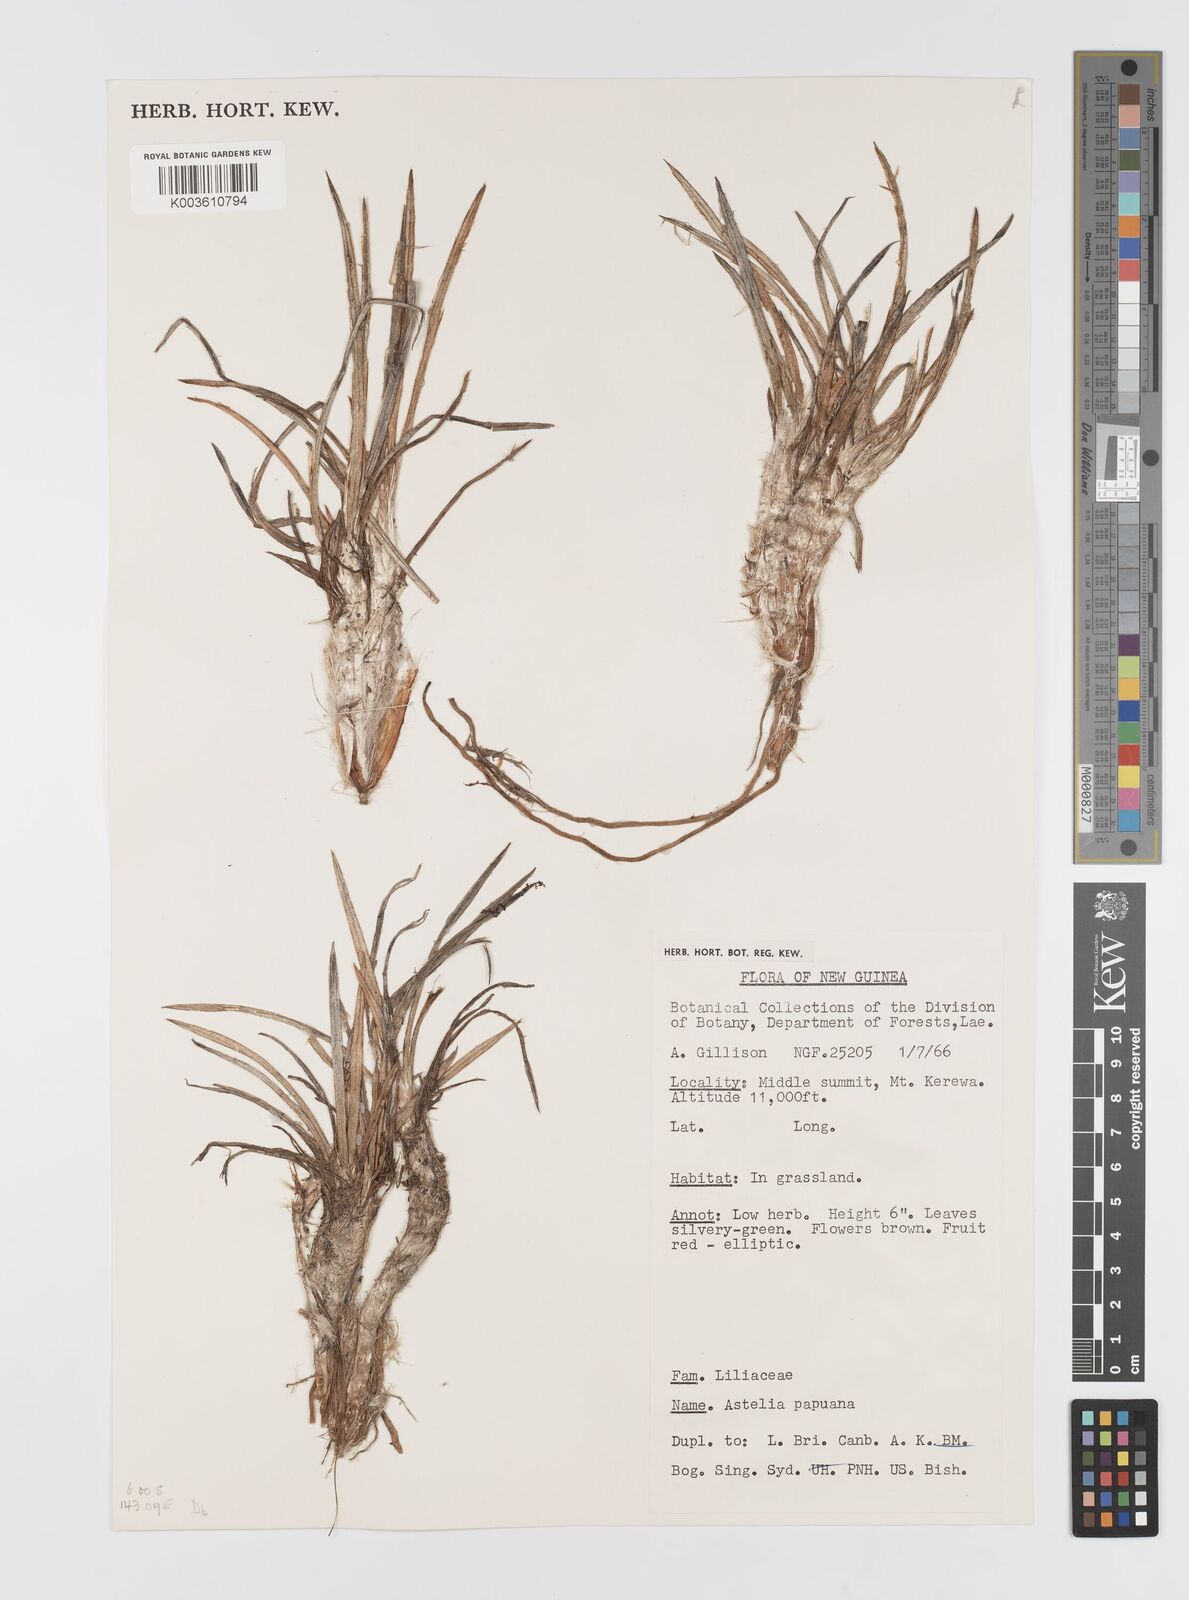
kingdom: Plantae
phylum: Tracheophyta
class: Liliopsida
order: Asparagales
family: Asteliaceae
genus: Astelia
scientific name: Astelia papuana
